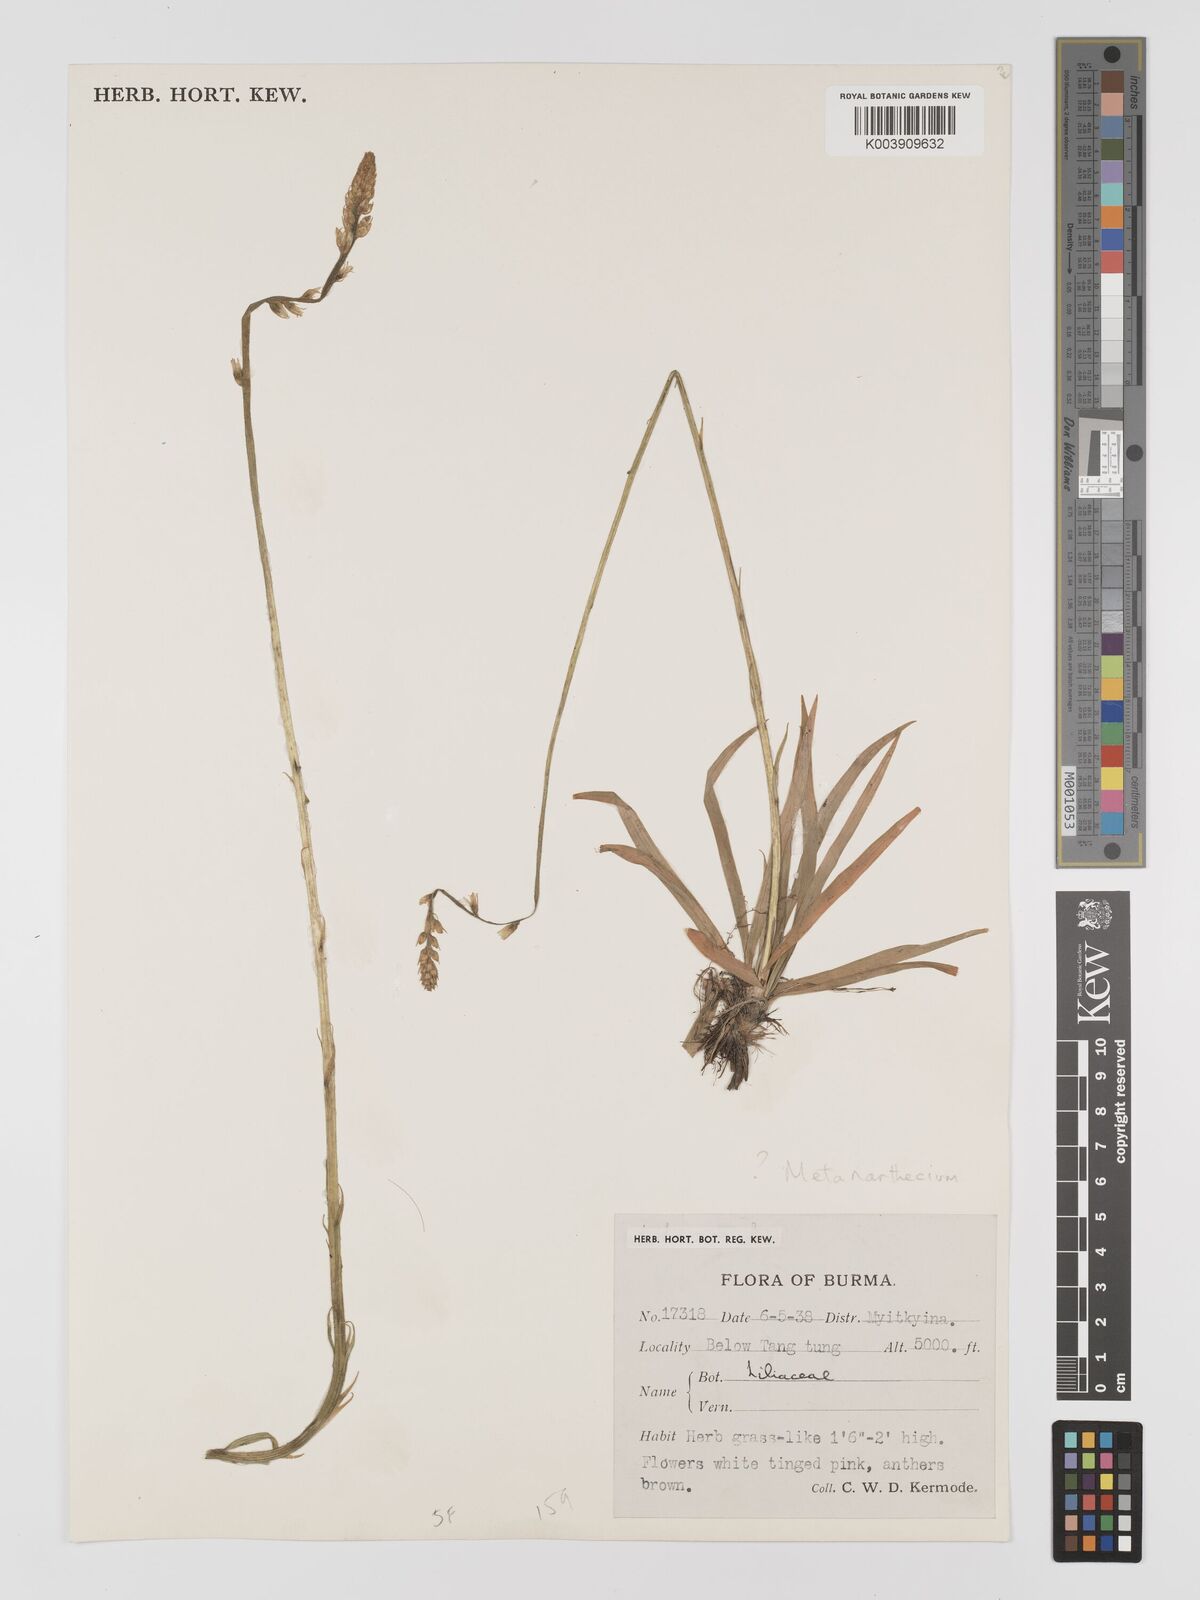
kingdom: Plantae
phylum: Tracheophyta
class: Liliopsida
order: Dioscoreales
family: Nartheciaceae
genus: Metanarthecium
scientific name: Metanarthecium
